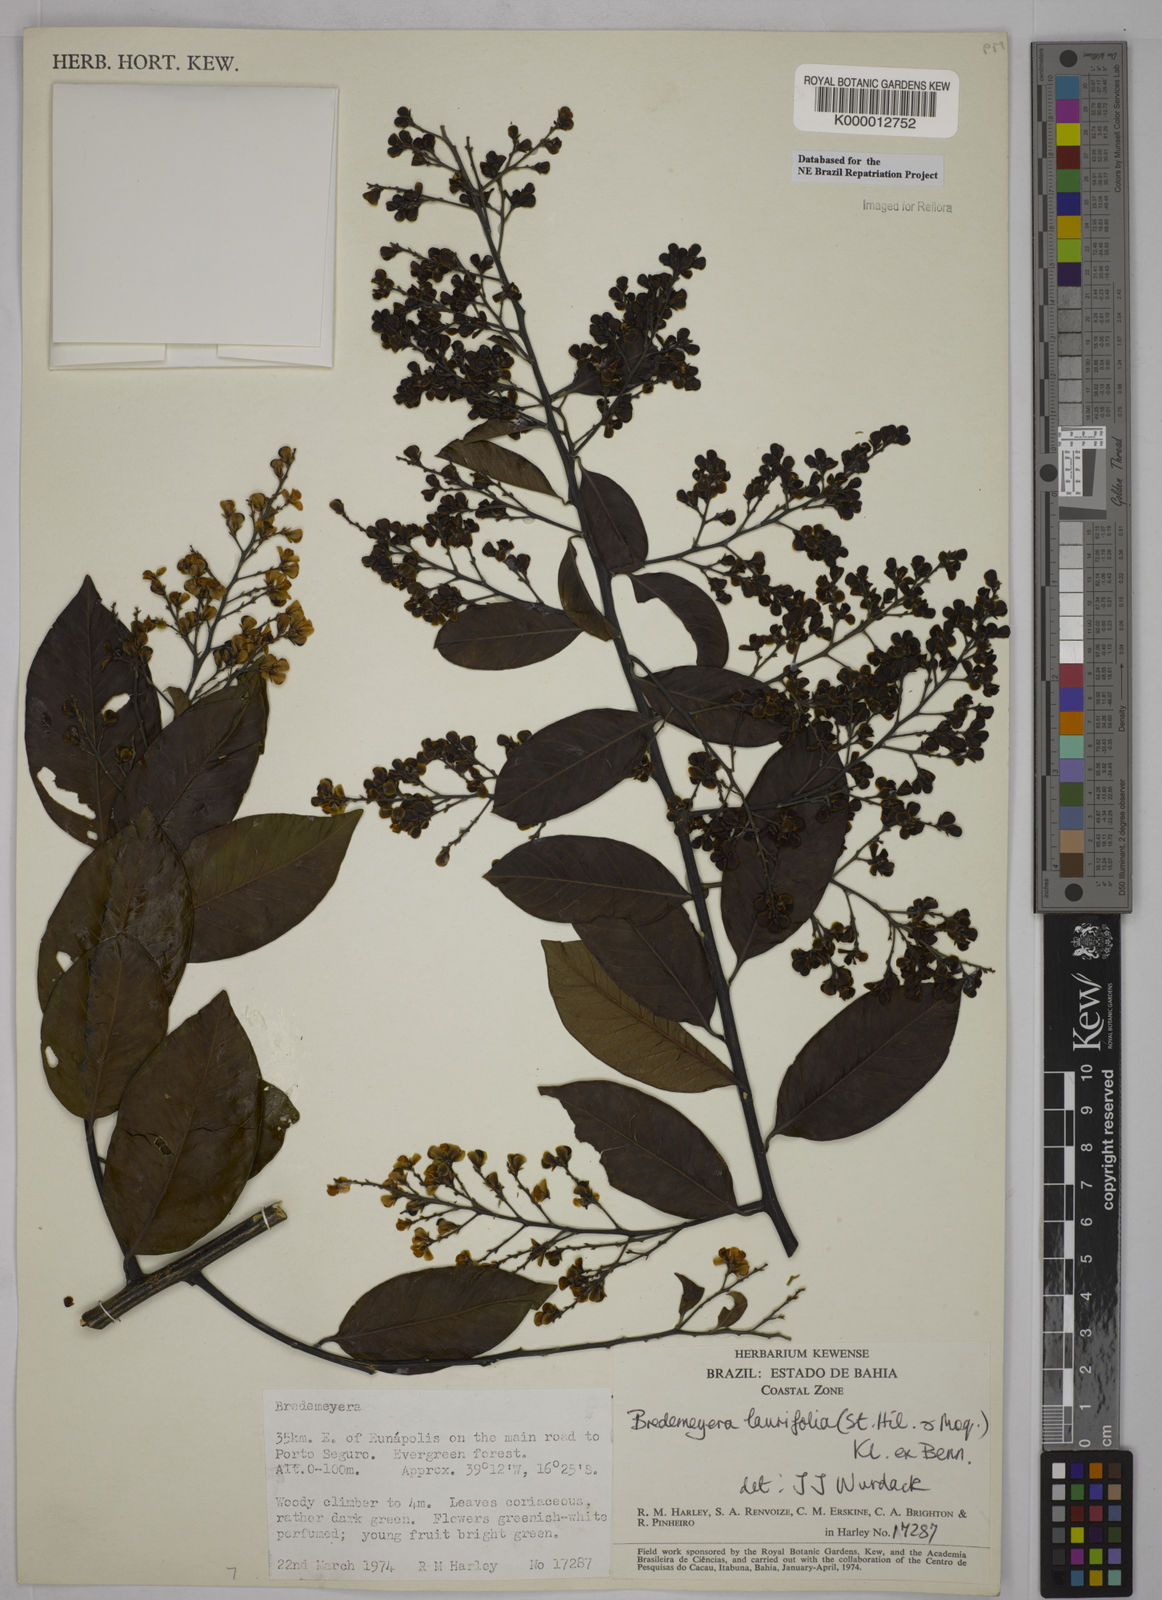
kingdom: Plantae
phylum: Tracheophyta
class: Magnoliopsida
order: Fabales
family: Polygalaceae
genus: Bredemeyera
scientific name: Bredemeyera laurifolia
